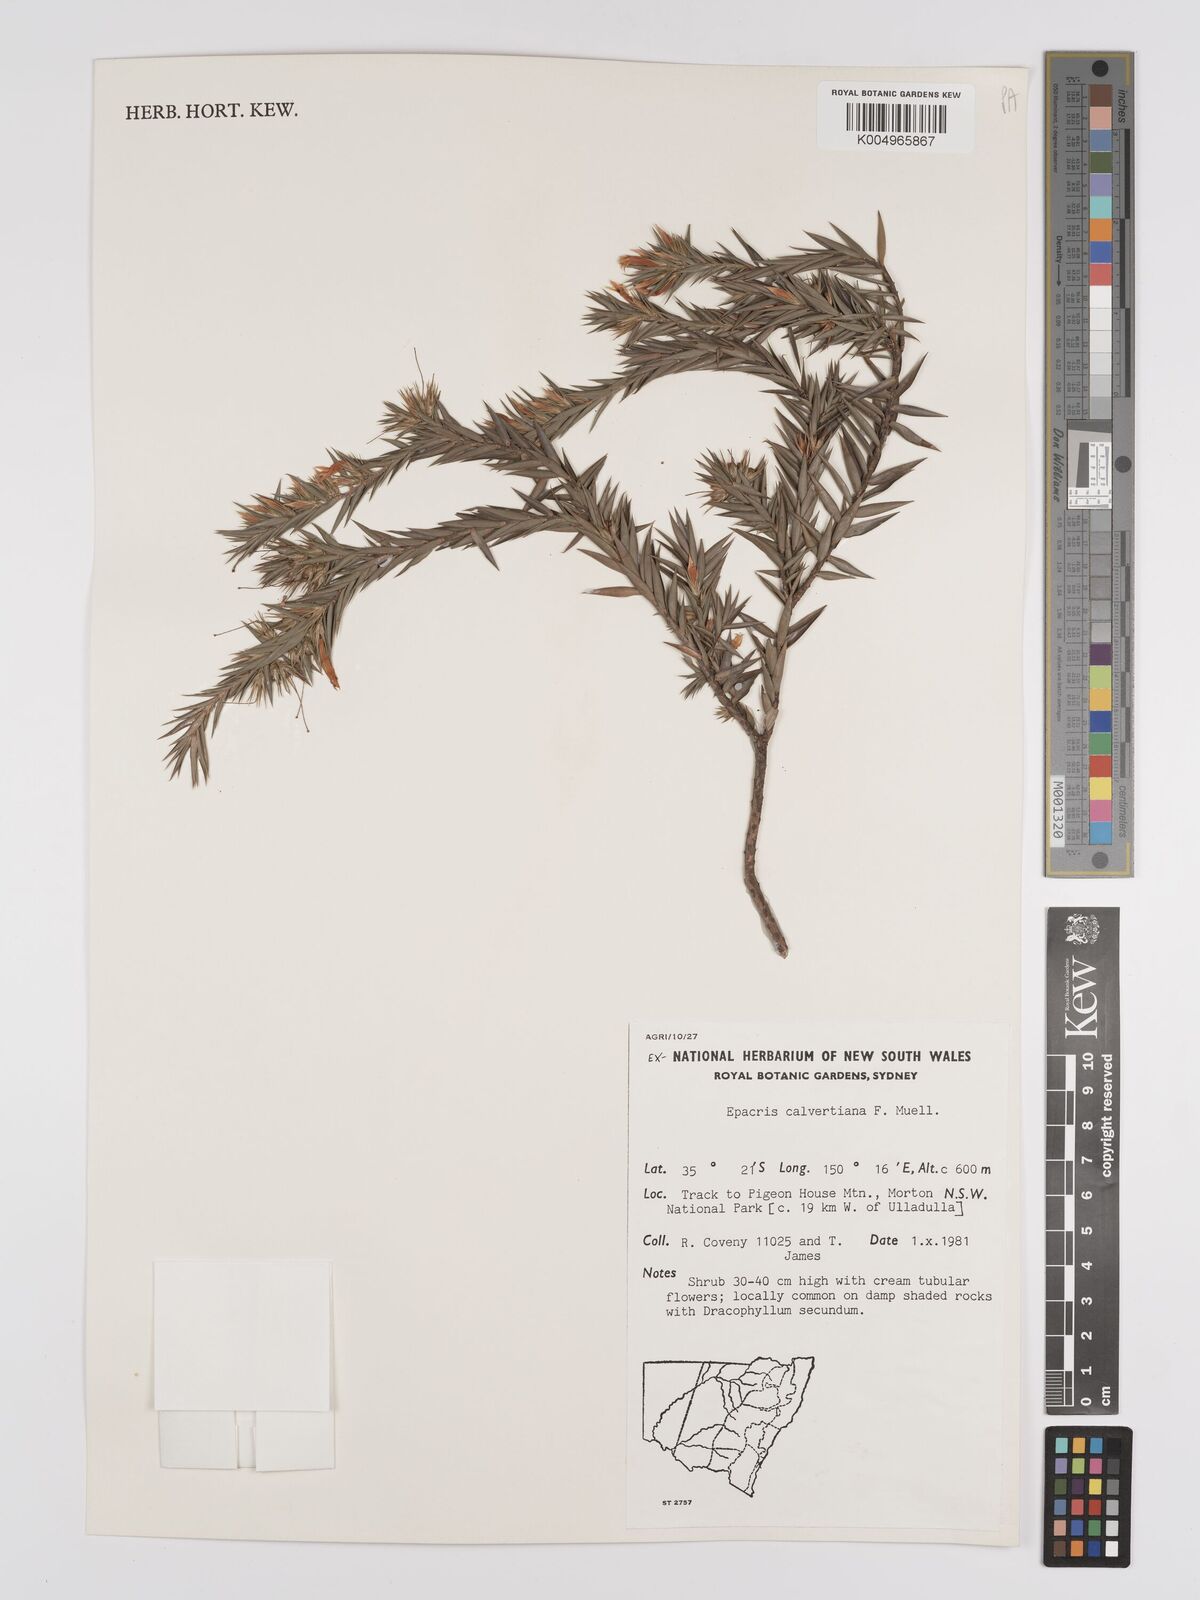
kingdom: Plantae
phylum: Tracheophyta
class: Magnoliopsida
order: Ericales
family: Ericaceae
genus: Epacris
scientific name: Epacris calvertiana
